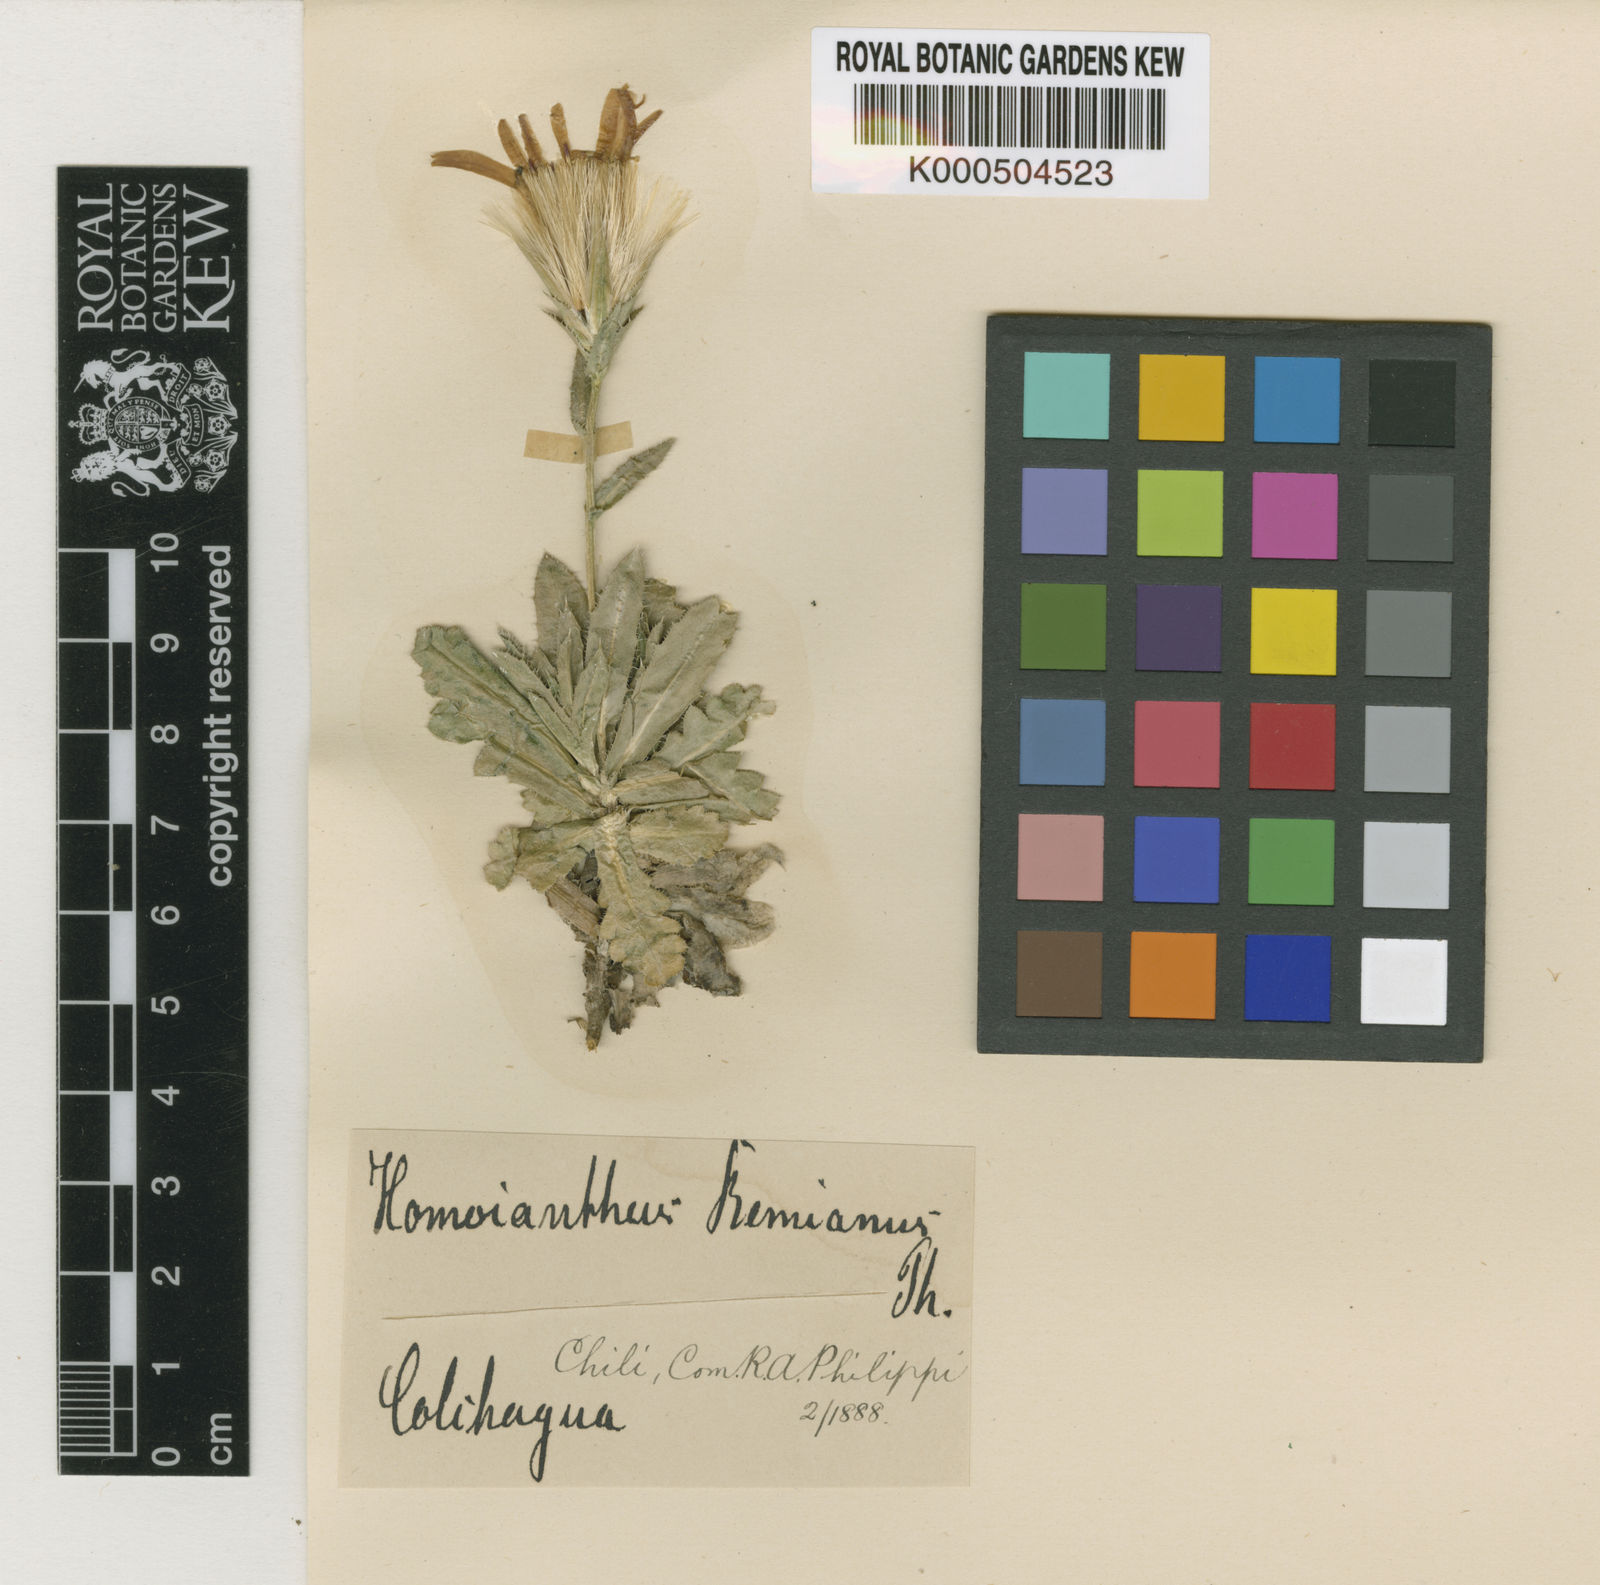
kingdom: Plantae
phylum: Tracheophyta
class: Magnoliopsida
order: Asterales
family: Asteraceae
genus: Perezia
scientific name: Perezia poeppigii
